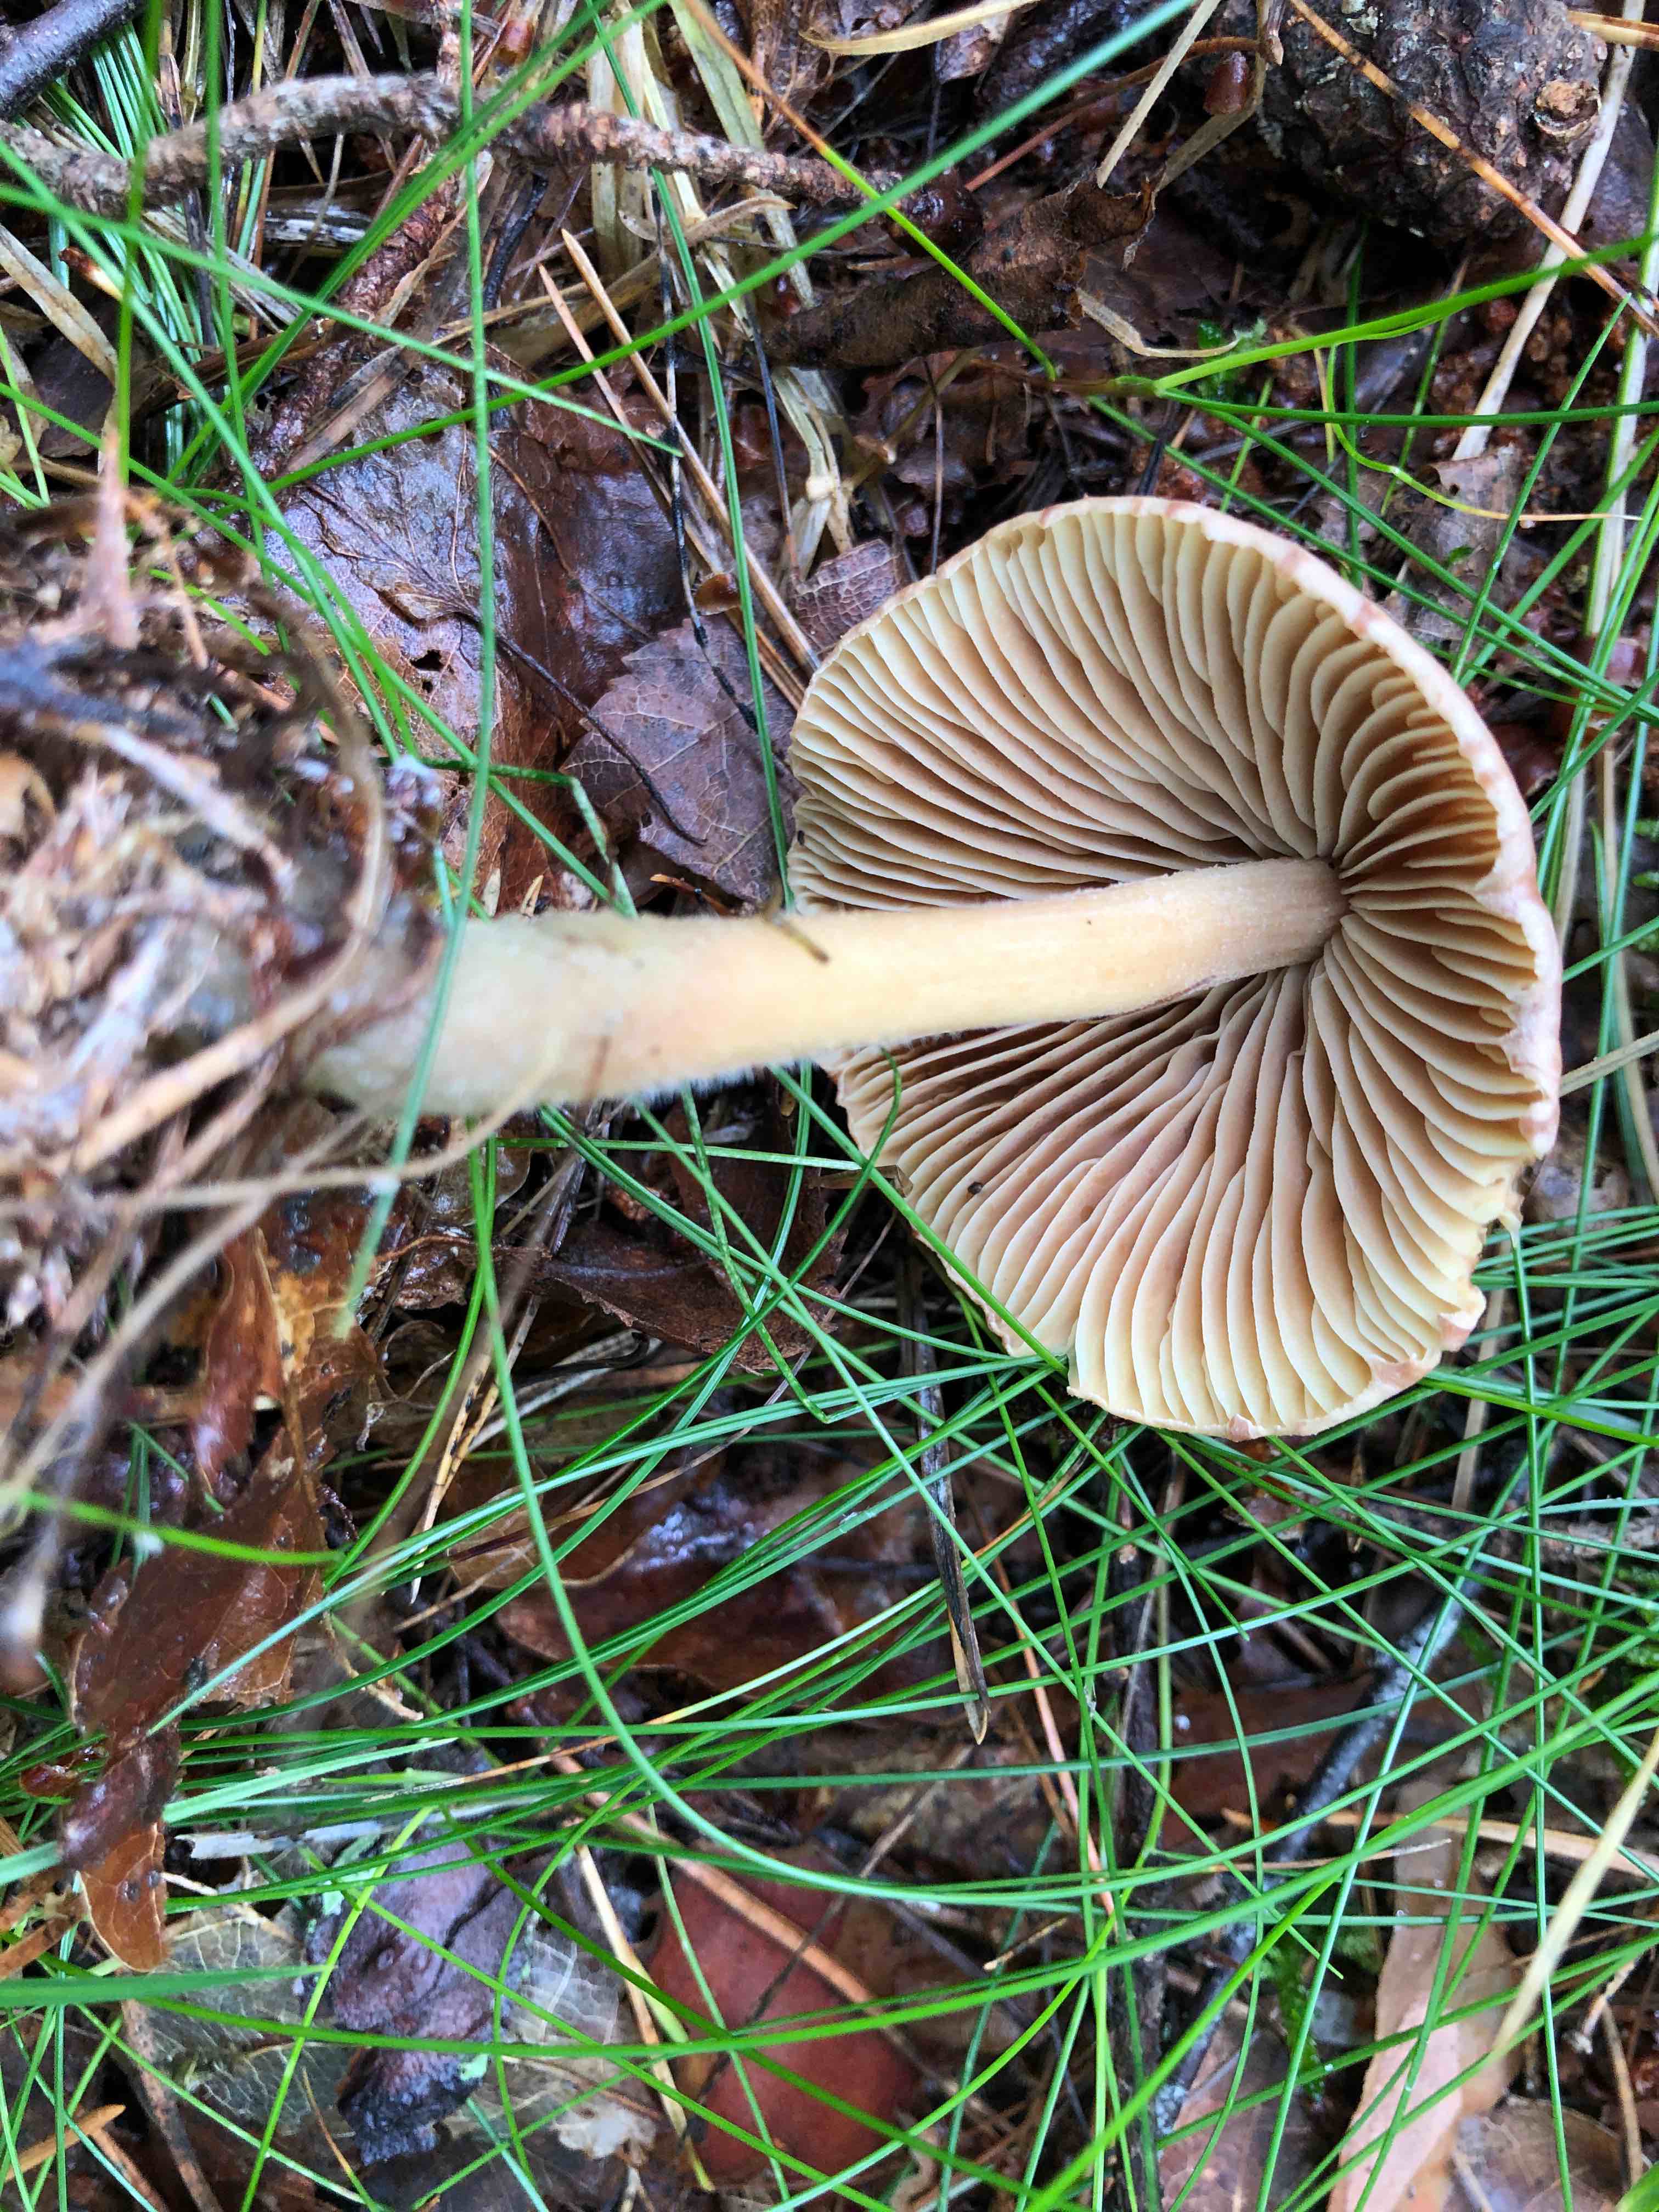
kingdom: Fungi
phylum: Basidiomycota
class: Agaricomycetes
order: Agaricales
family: Omphalotaceae
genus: Collybiopsis
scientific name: Collybiopsis peronata
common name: bestøvlet fladhat
